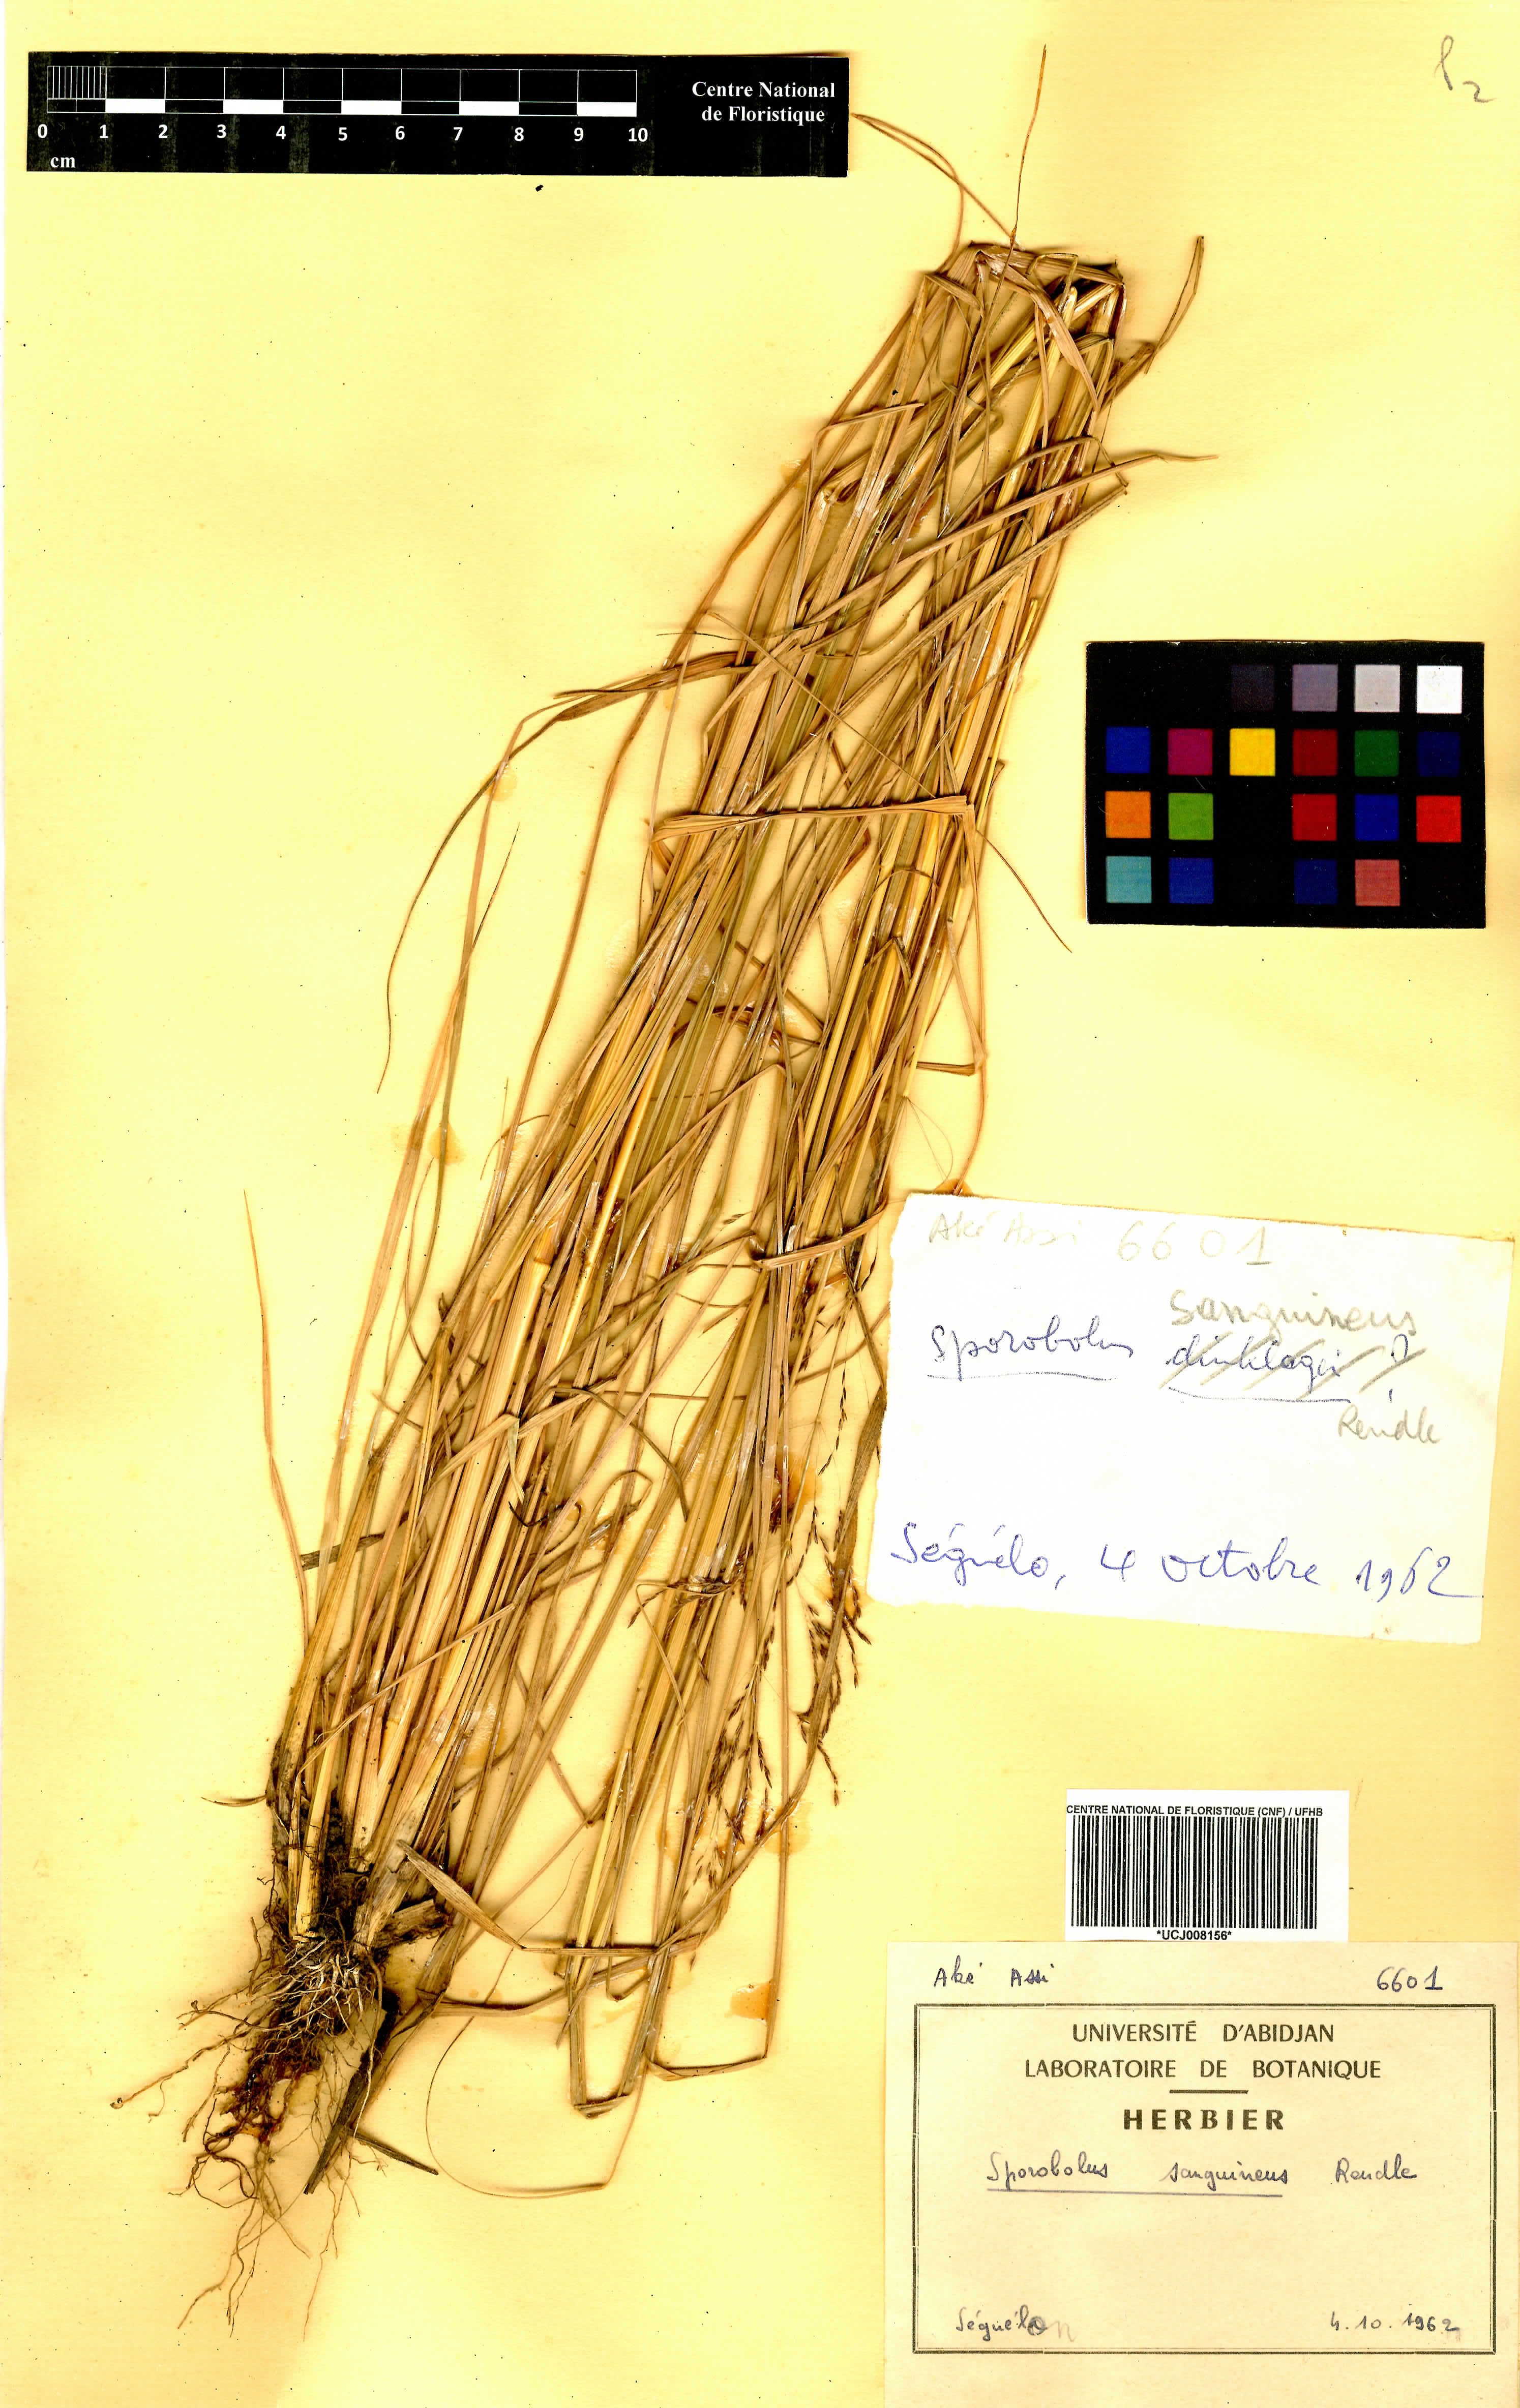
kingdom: Plantae
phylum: Tracheophyta
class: Liliopsida
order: Poales
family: Poaceae
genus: Sporobolus
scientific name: Sporobolus sanguineus
